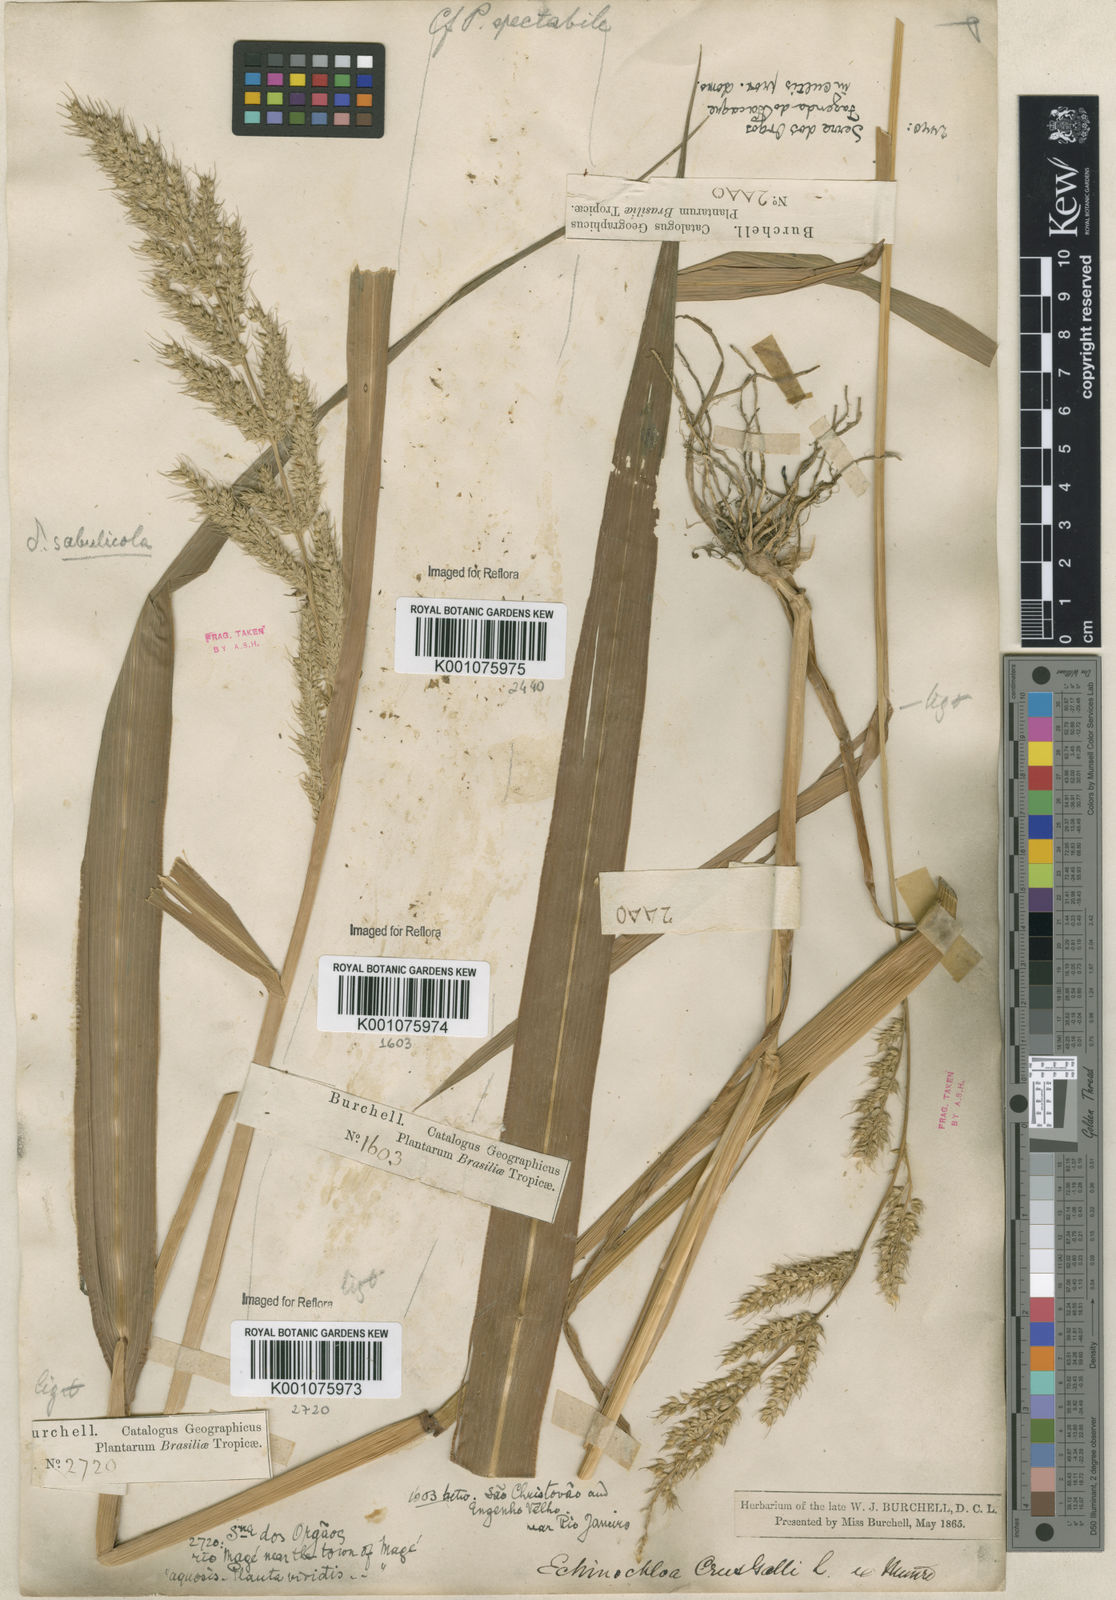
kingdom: Plantae
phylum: Tracheophyta
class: Liliopsida
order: Poales
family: Poaceae
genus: Echinochloa
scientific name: Echinochloa crus-pavonis
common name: Gulf cockspur grass
